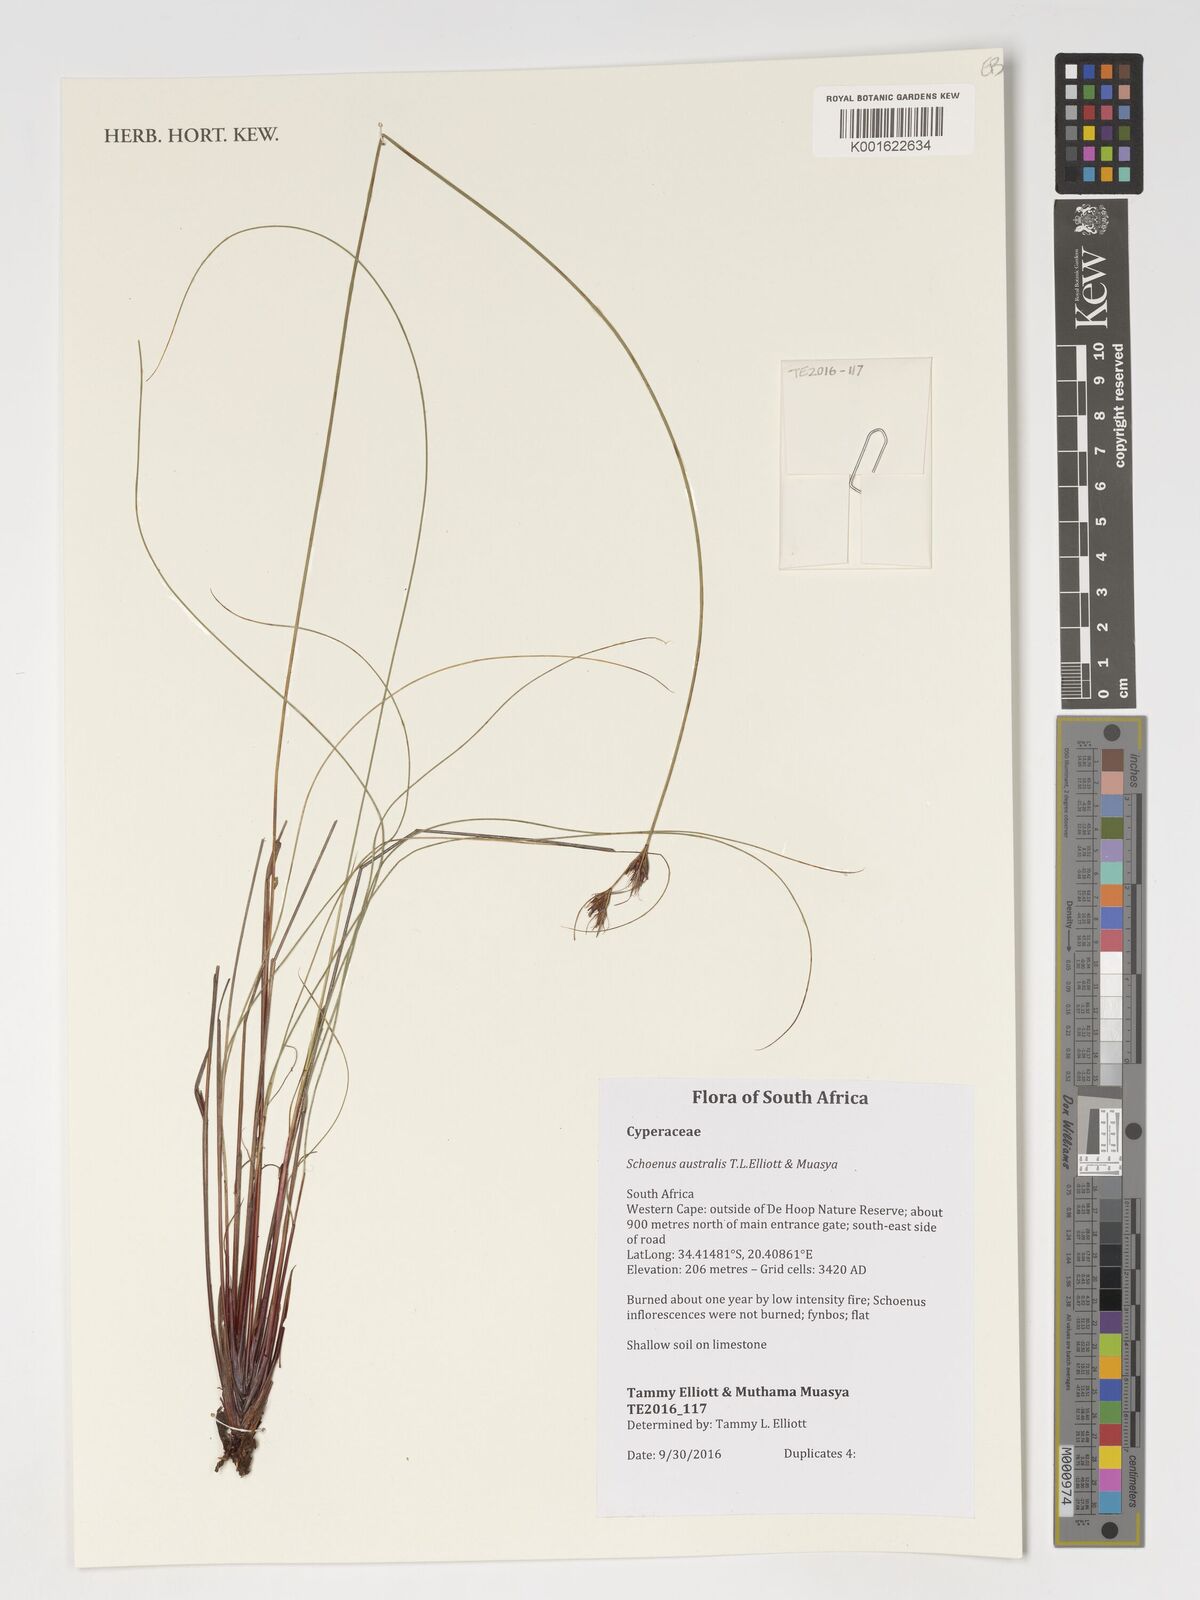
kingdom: Plantae
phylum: Tracheophyta
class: Liliopsida
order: Poales
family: Cyperaceae
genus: Schoenus
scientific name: Schoenus
